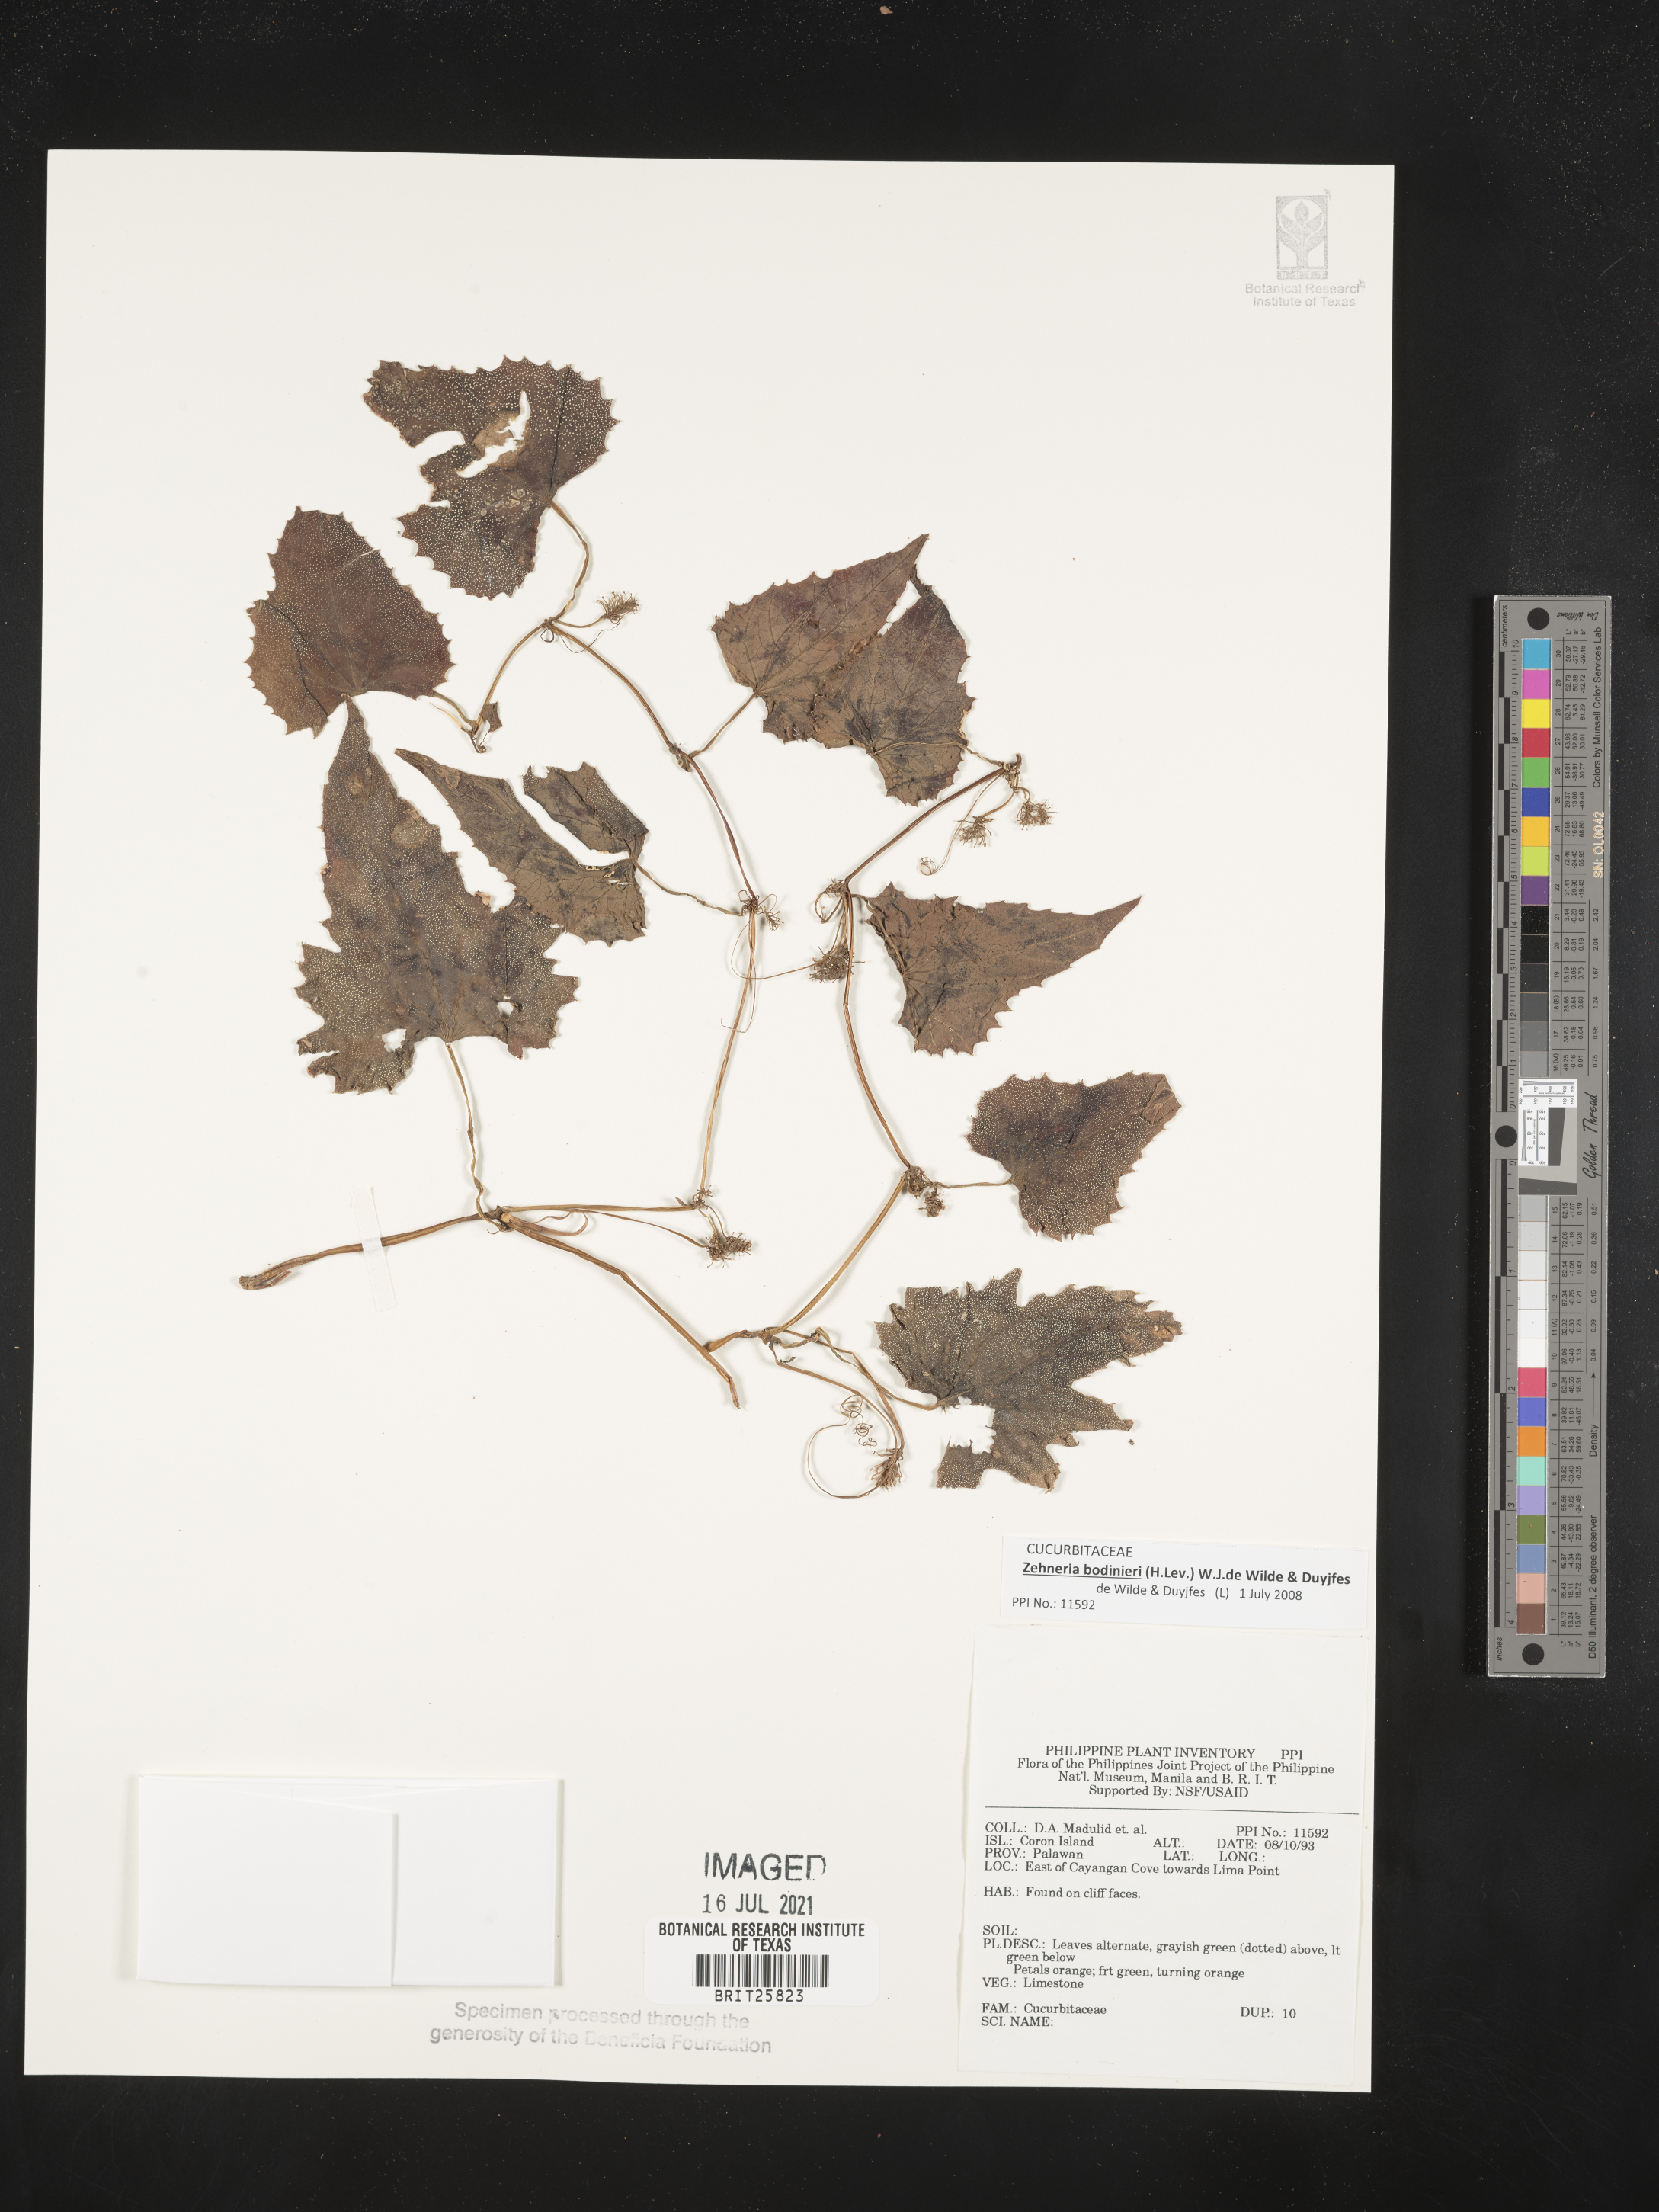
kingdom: Plantae
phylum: Tracheophyta
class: Magnoliopsida
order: Cucurbitales
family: Cucurbitaceae
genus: Zehneria
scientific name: Zehneria bodinieri
